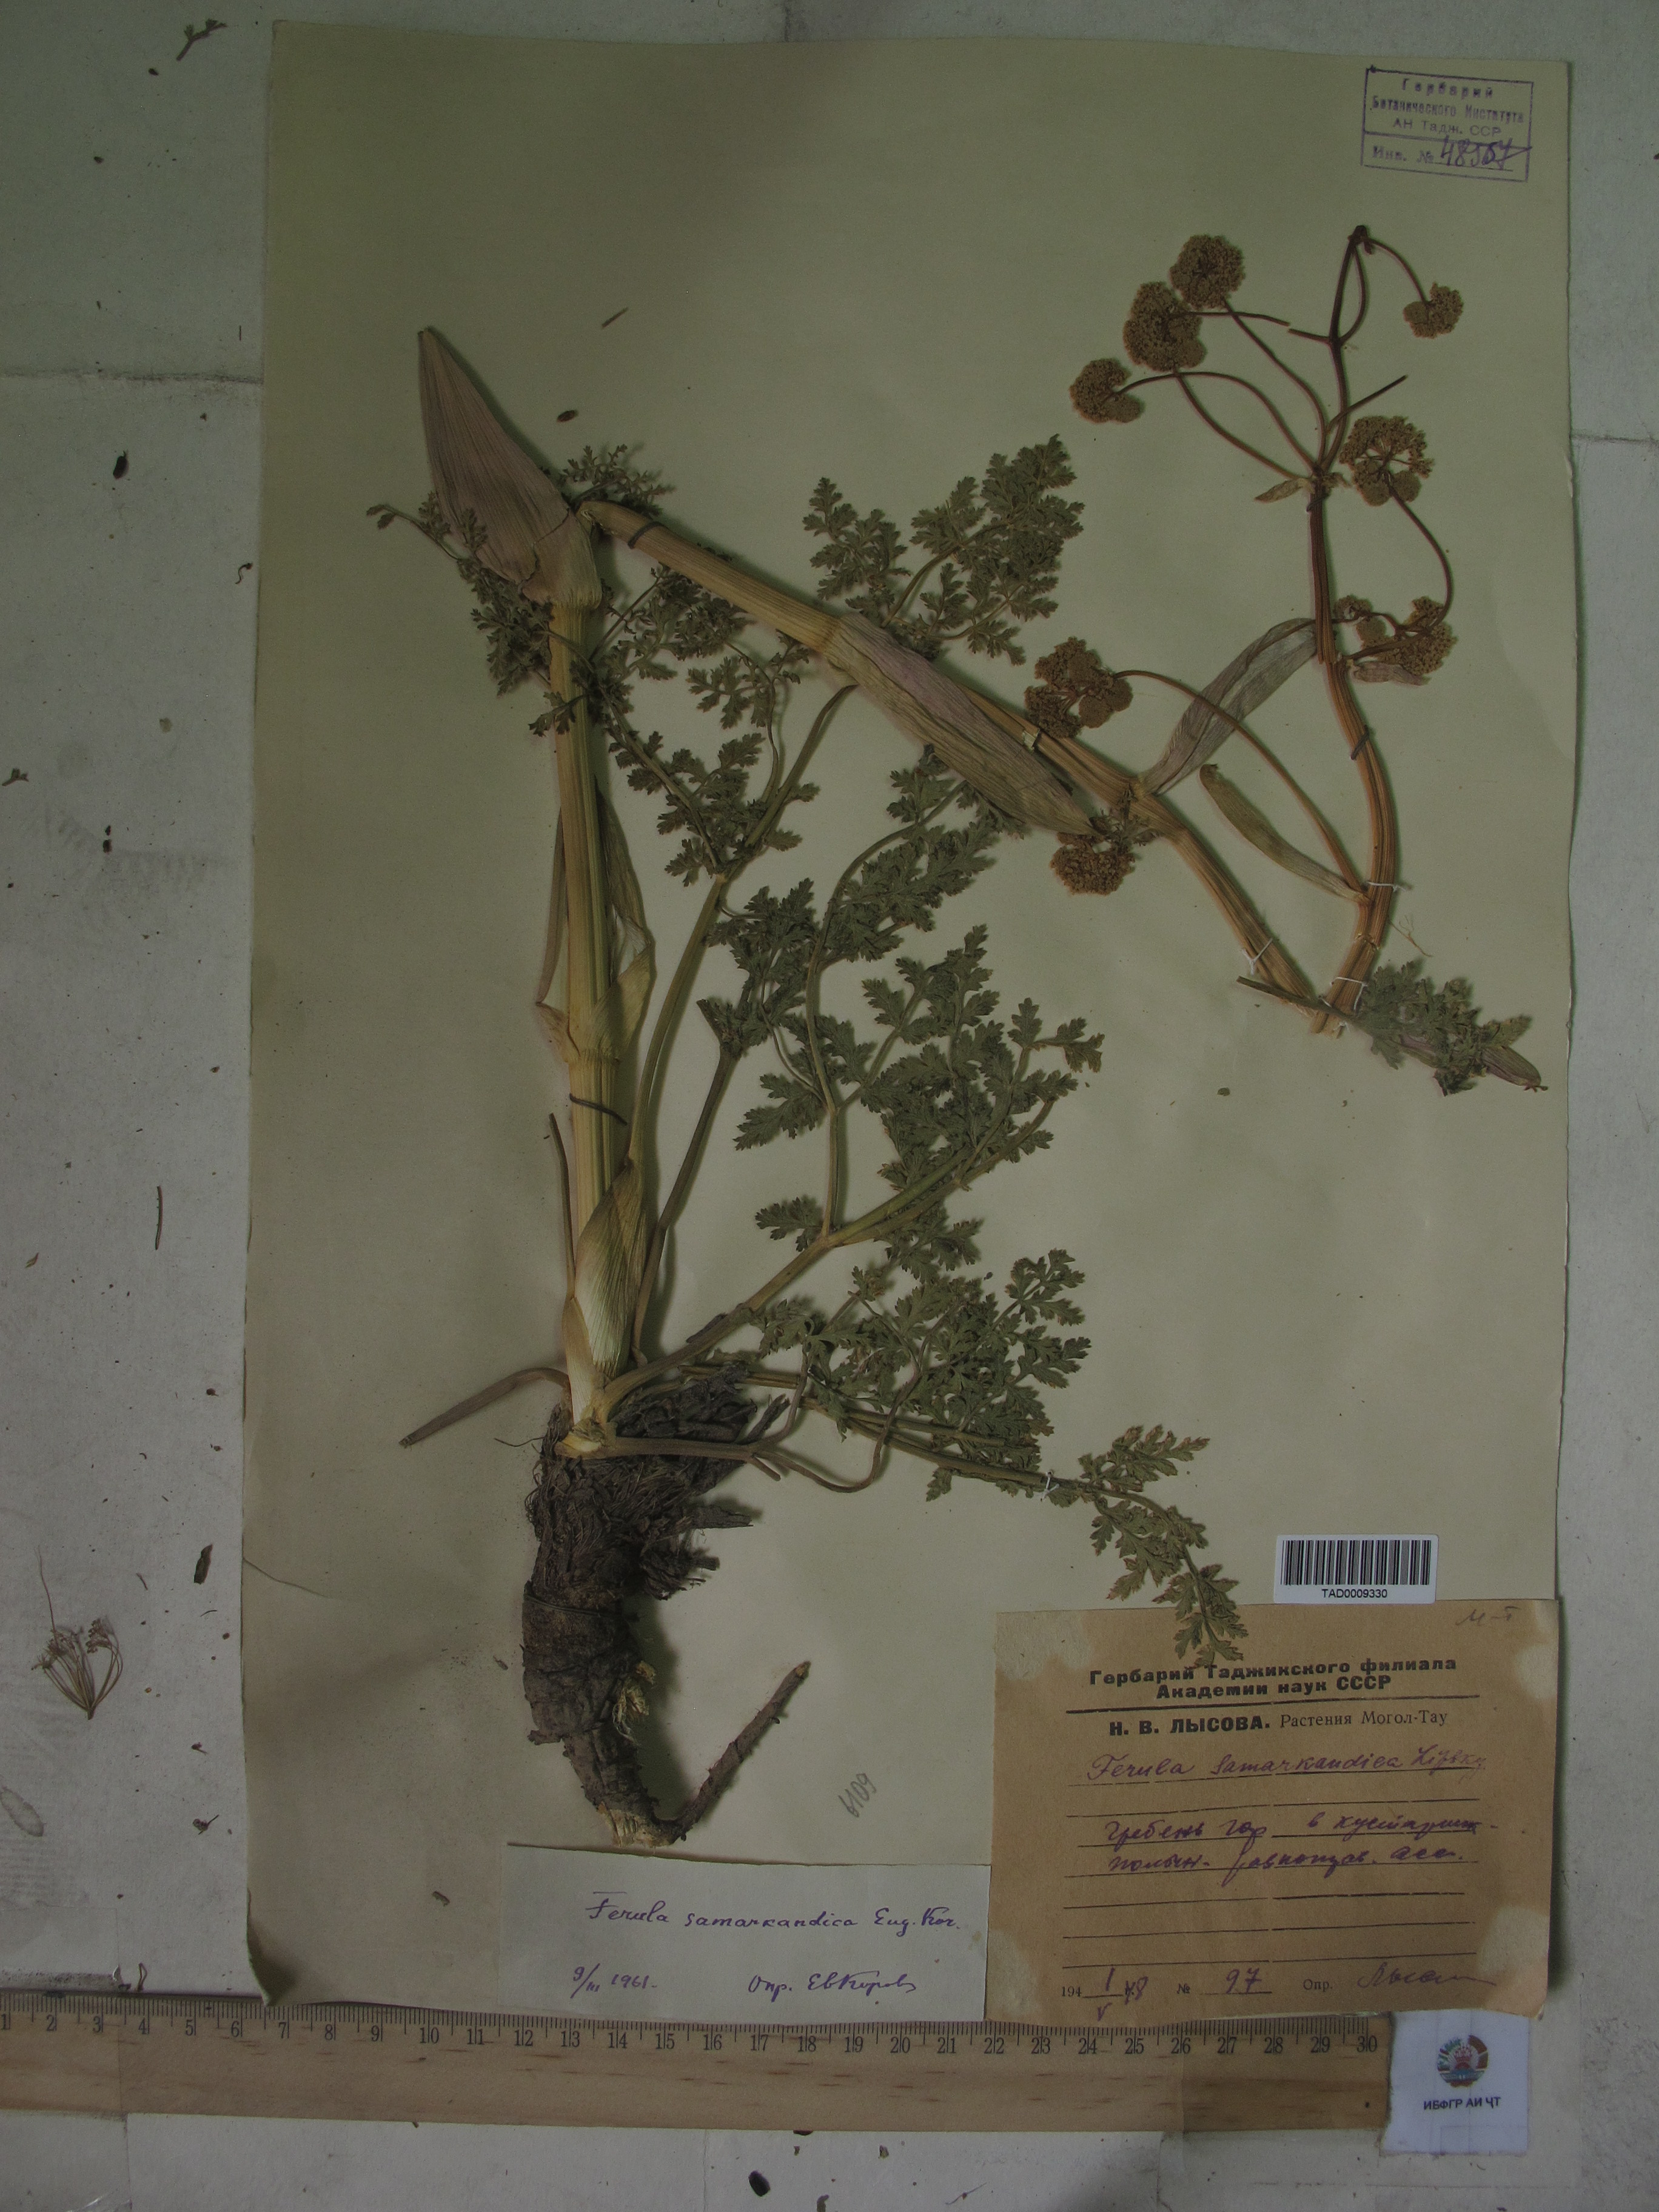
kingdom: Plantae
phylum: Tracheophyta
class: Magnoliopsida
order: Apiales
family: Apiaceae
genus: Ferula
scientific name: Ferula samarkandica
